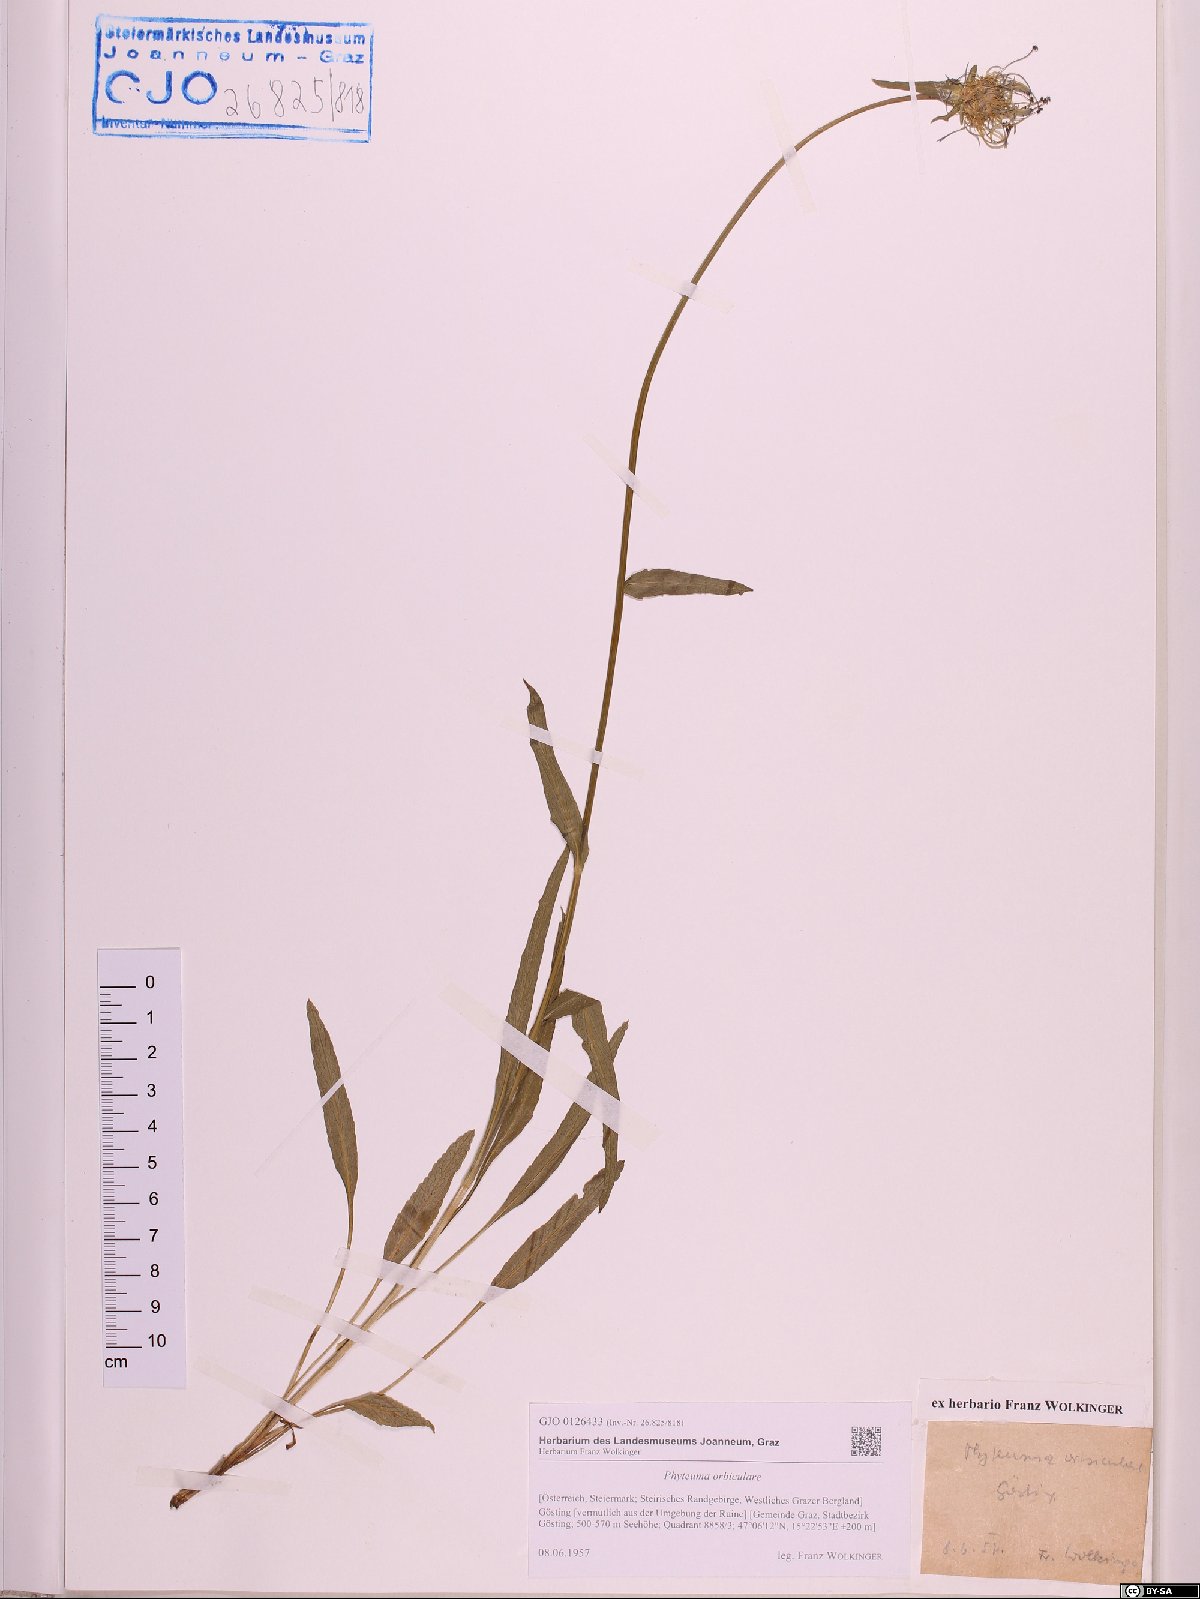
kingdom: Plantae
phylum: Tracheophyta
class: Magnoliopsida
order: Asterales
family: Campanulaceae
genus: Phyteuma
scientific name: Phyteuma orbiculare
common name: Round-headed rampion
